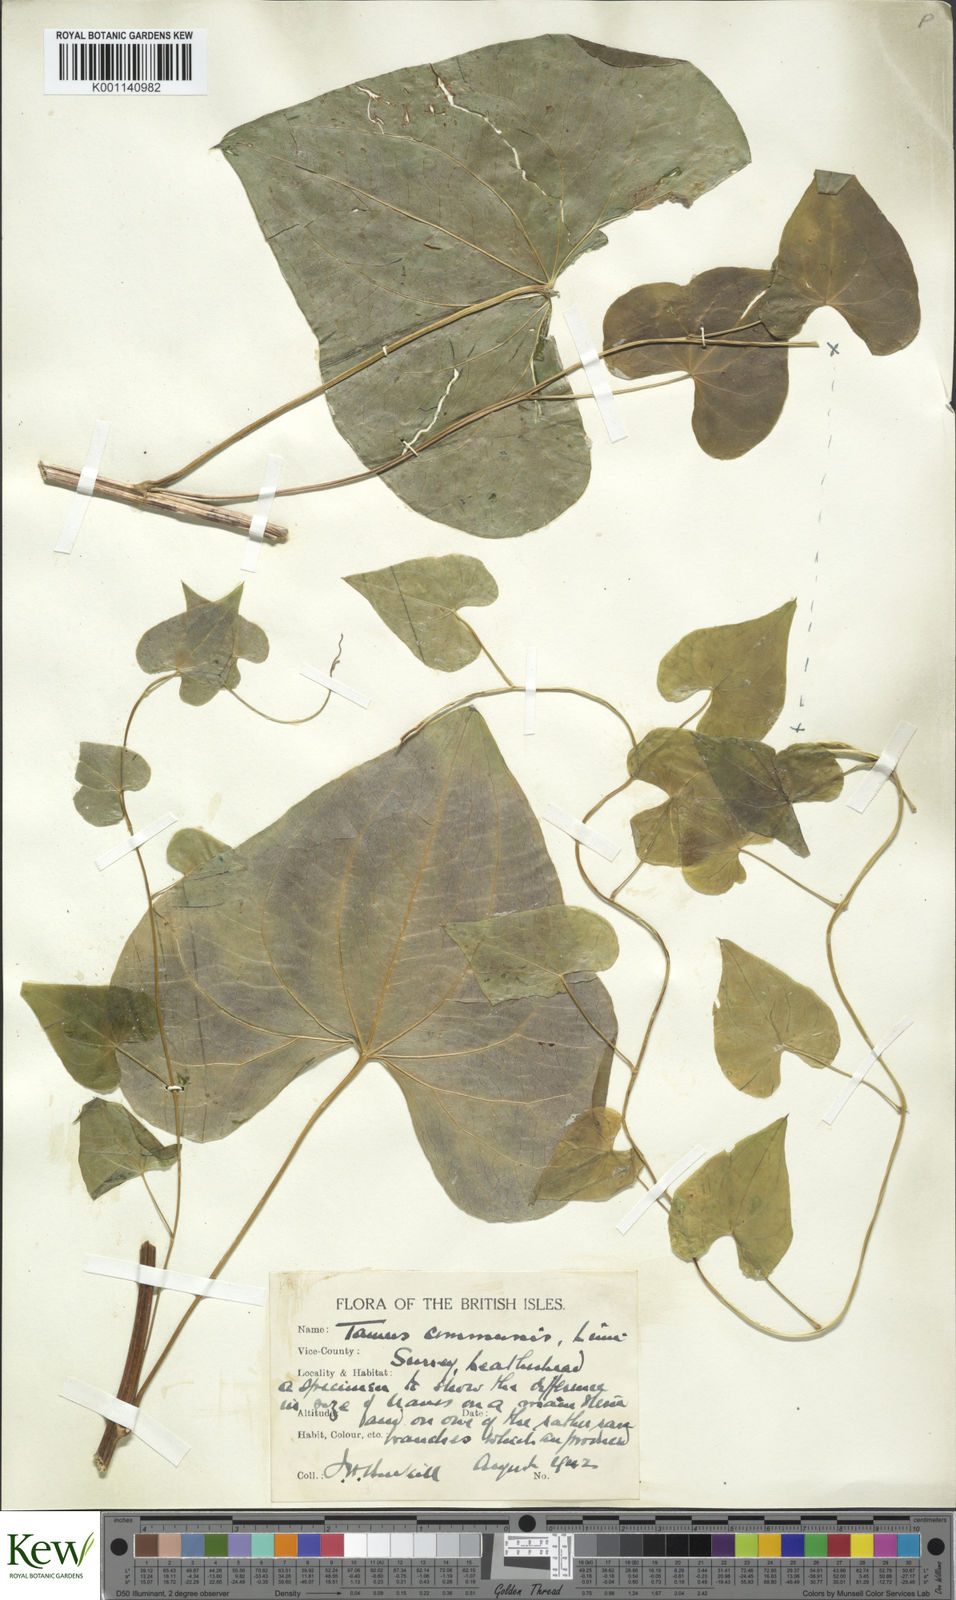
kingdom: Plantae
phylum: Tracheophyta
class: Liliopsida
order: Dioscoreales
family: Dioscoreaceae
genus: Dioscorea
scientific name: Dioscorea communis
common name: Black-bindweed
